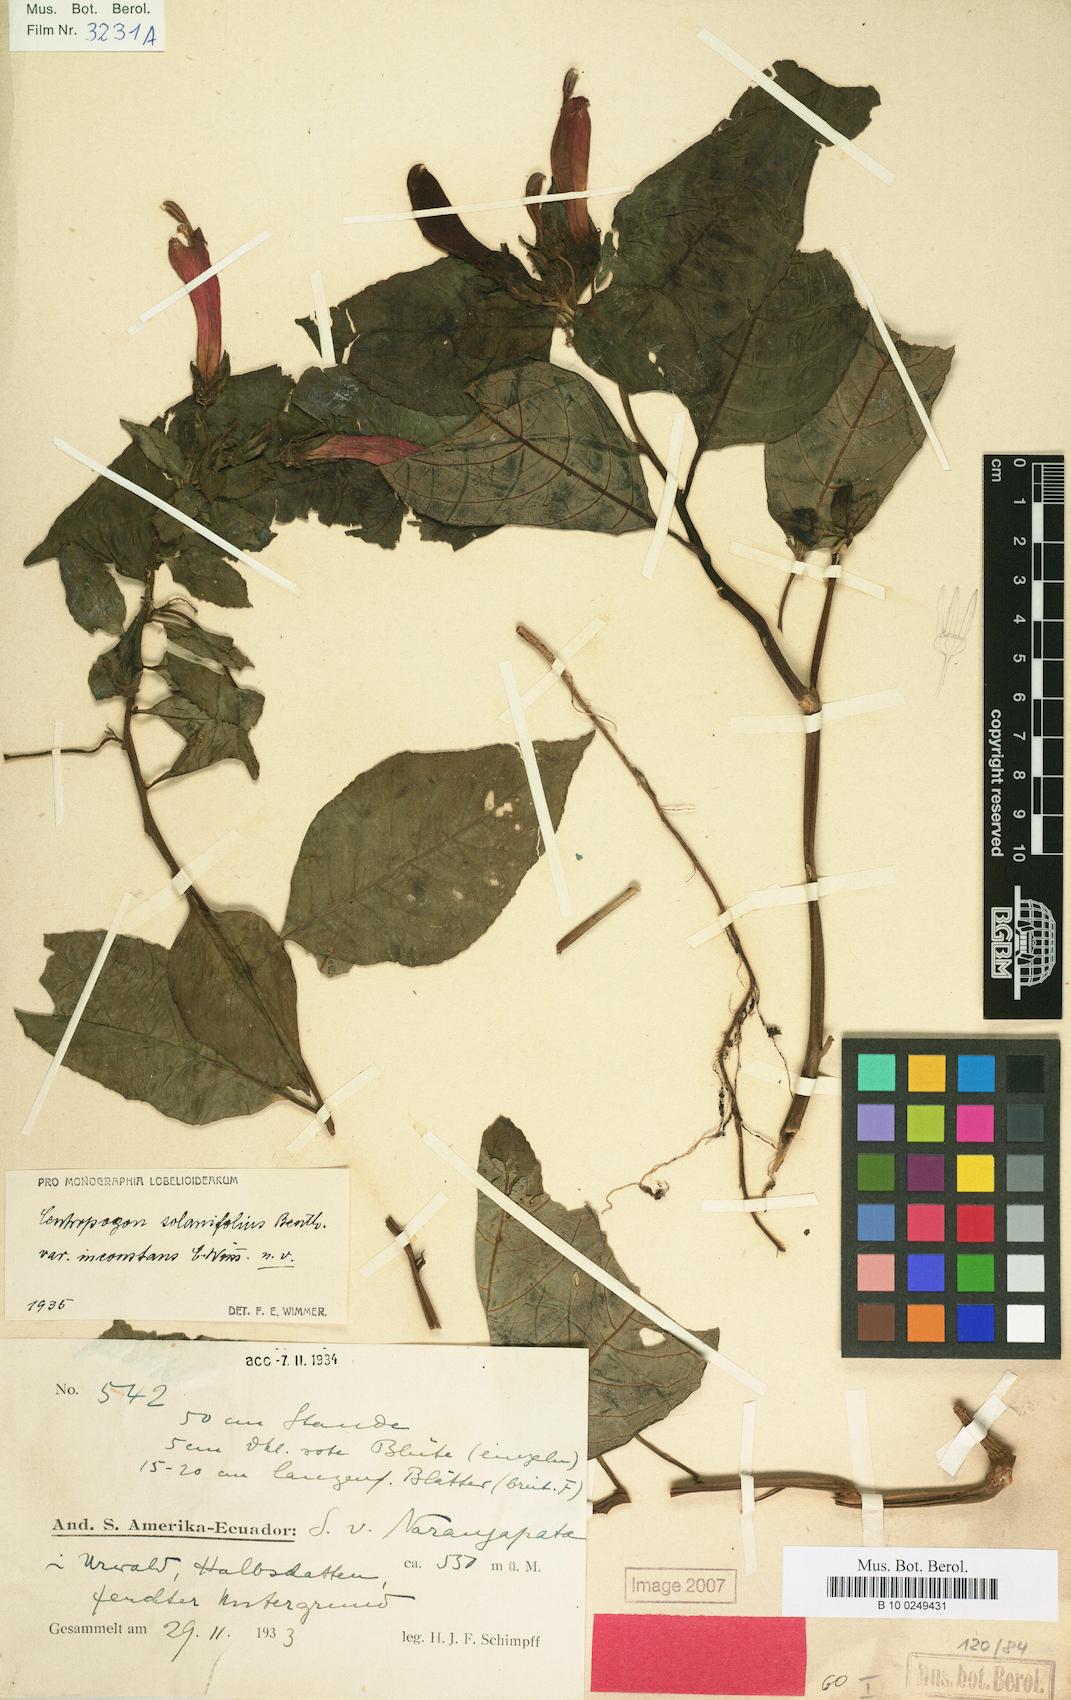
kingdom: Plantae
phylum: Tracheophyta
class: Magnoliopsida
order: Asterales
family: Campanulaceae
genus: Centropogon
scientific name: Centropogon solanifolius
